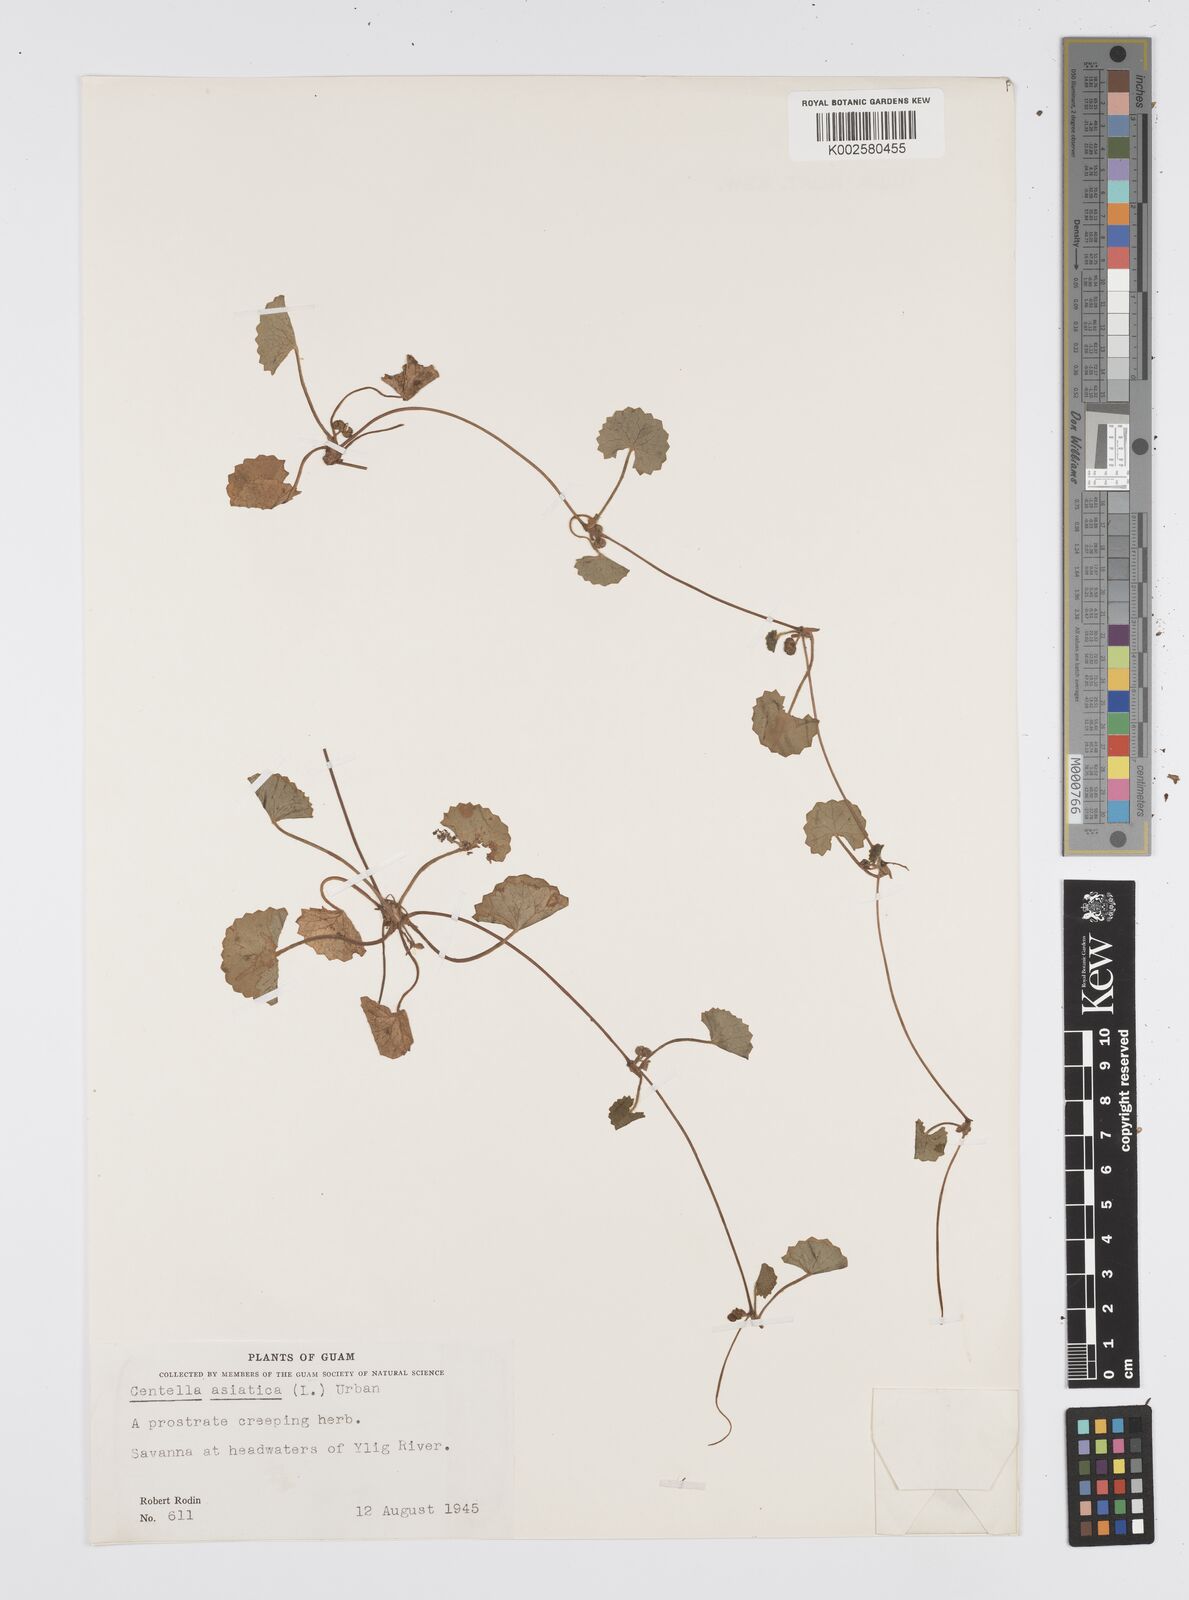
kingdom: Plantae
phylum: Tracheophyta
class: Magnoliopsida
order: Apiales
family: Apiaceae
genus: Centella
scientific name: Centella asiatica
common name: Spadeleaf
